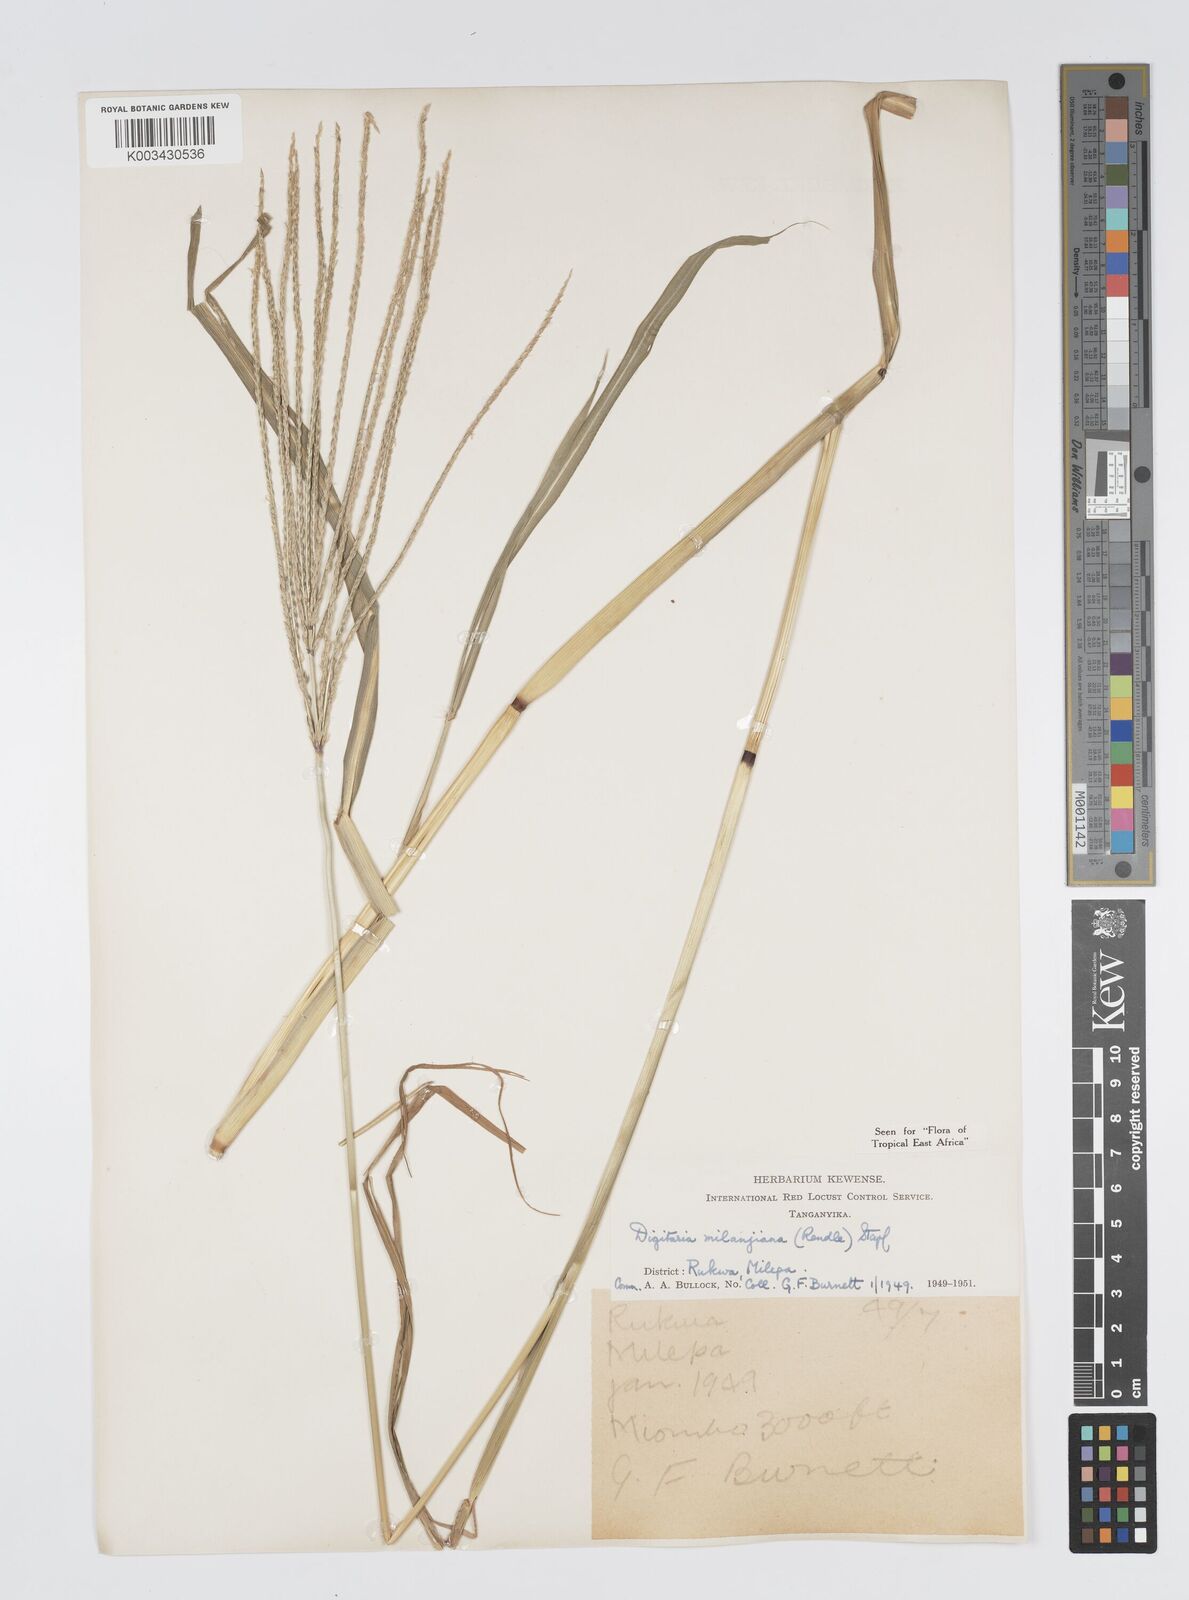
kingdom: Plantae
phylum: Tracheophyta
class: Liliopsida
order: Poales
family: Poaceae
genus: Digitaria
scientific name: Digitaria milanjiana
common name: Madagascar crabgrass
